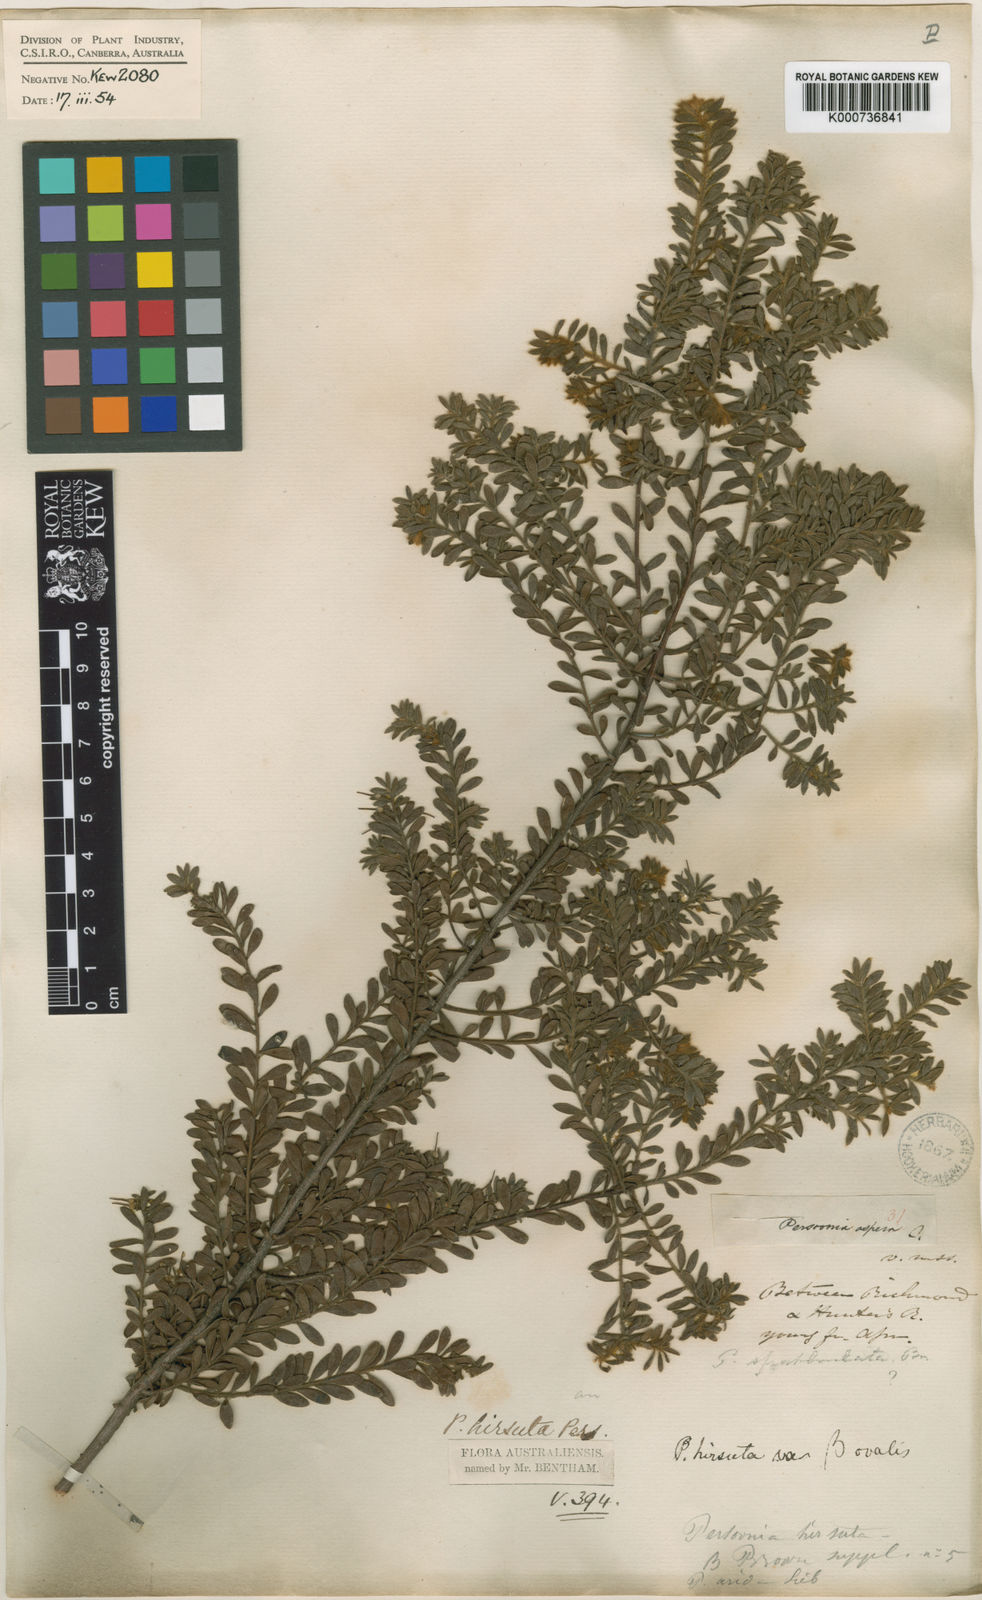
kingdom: Plantae
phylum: Tracheophyta
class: Magnoliopsida
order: Proteales
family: Proteaceae
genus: Persoonia
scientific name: Persoonia hirsuta
